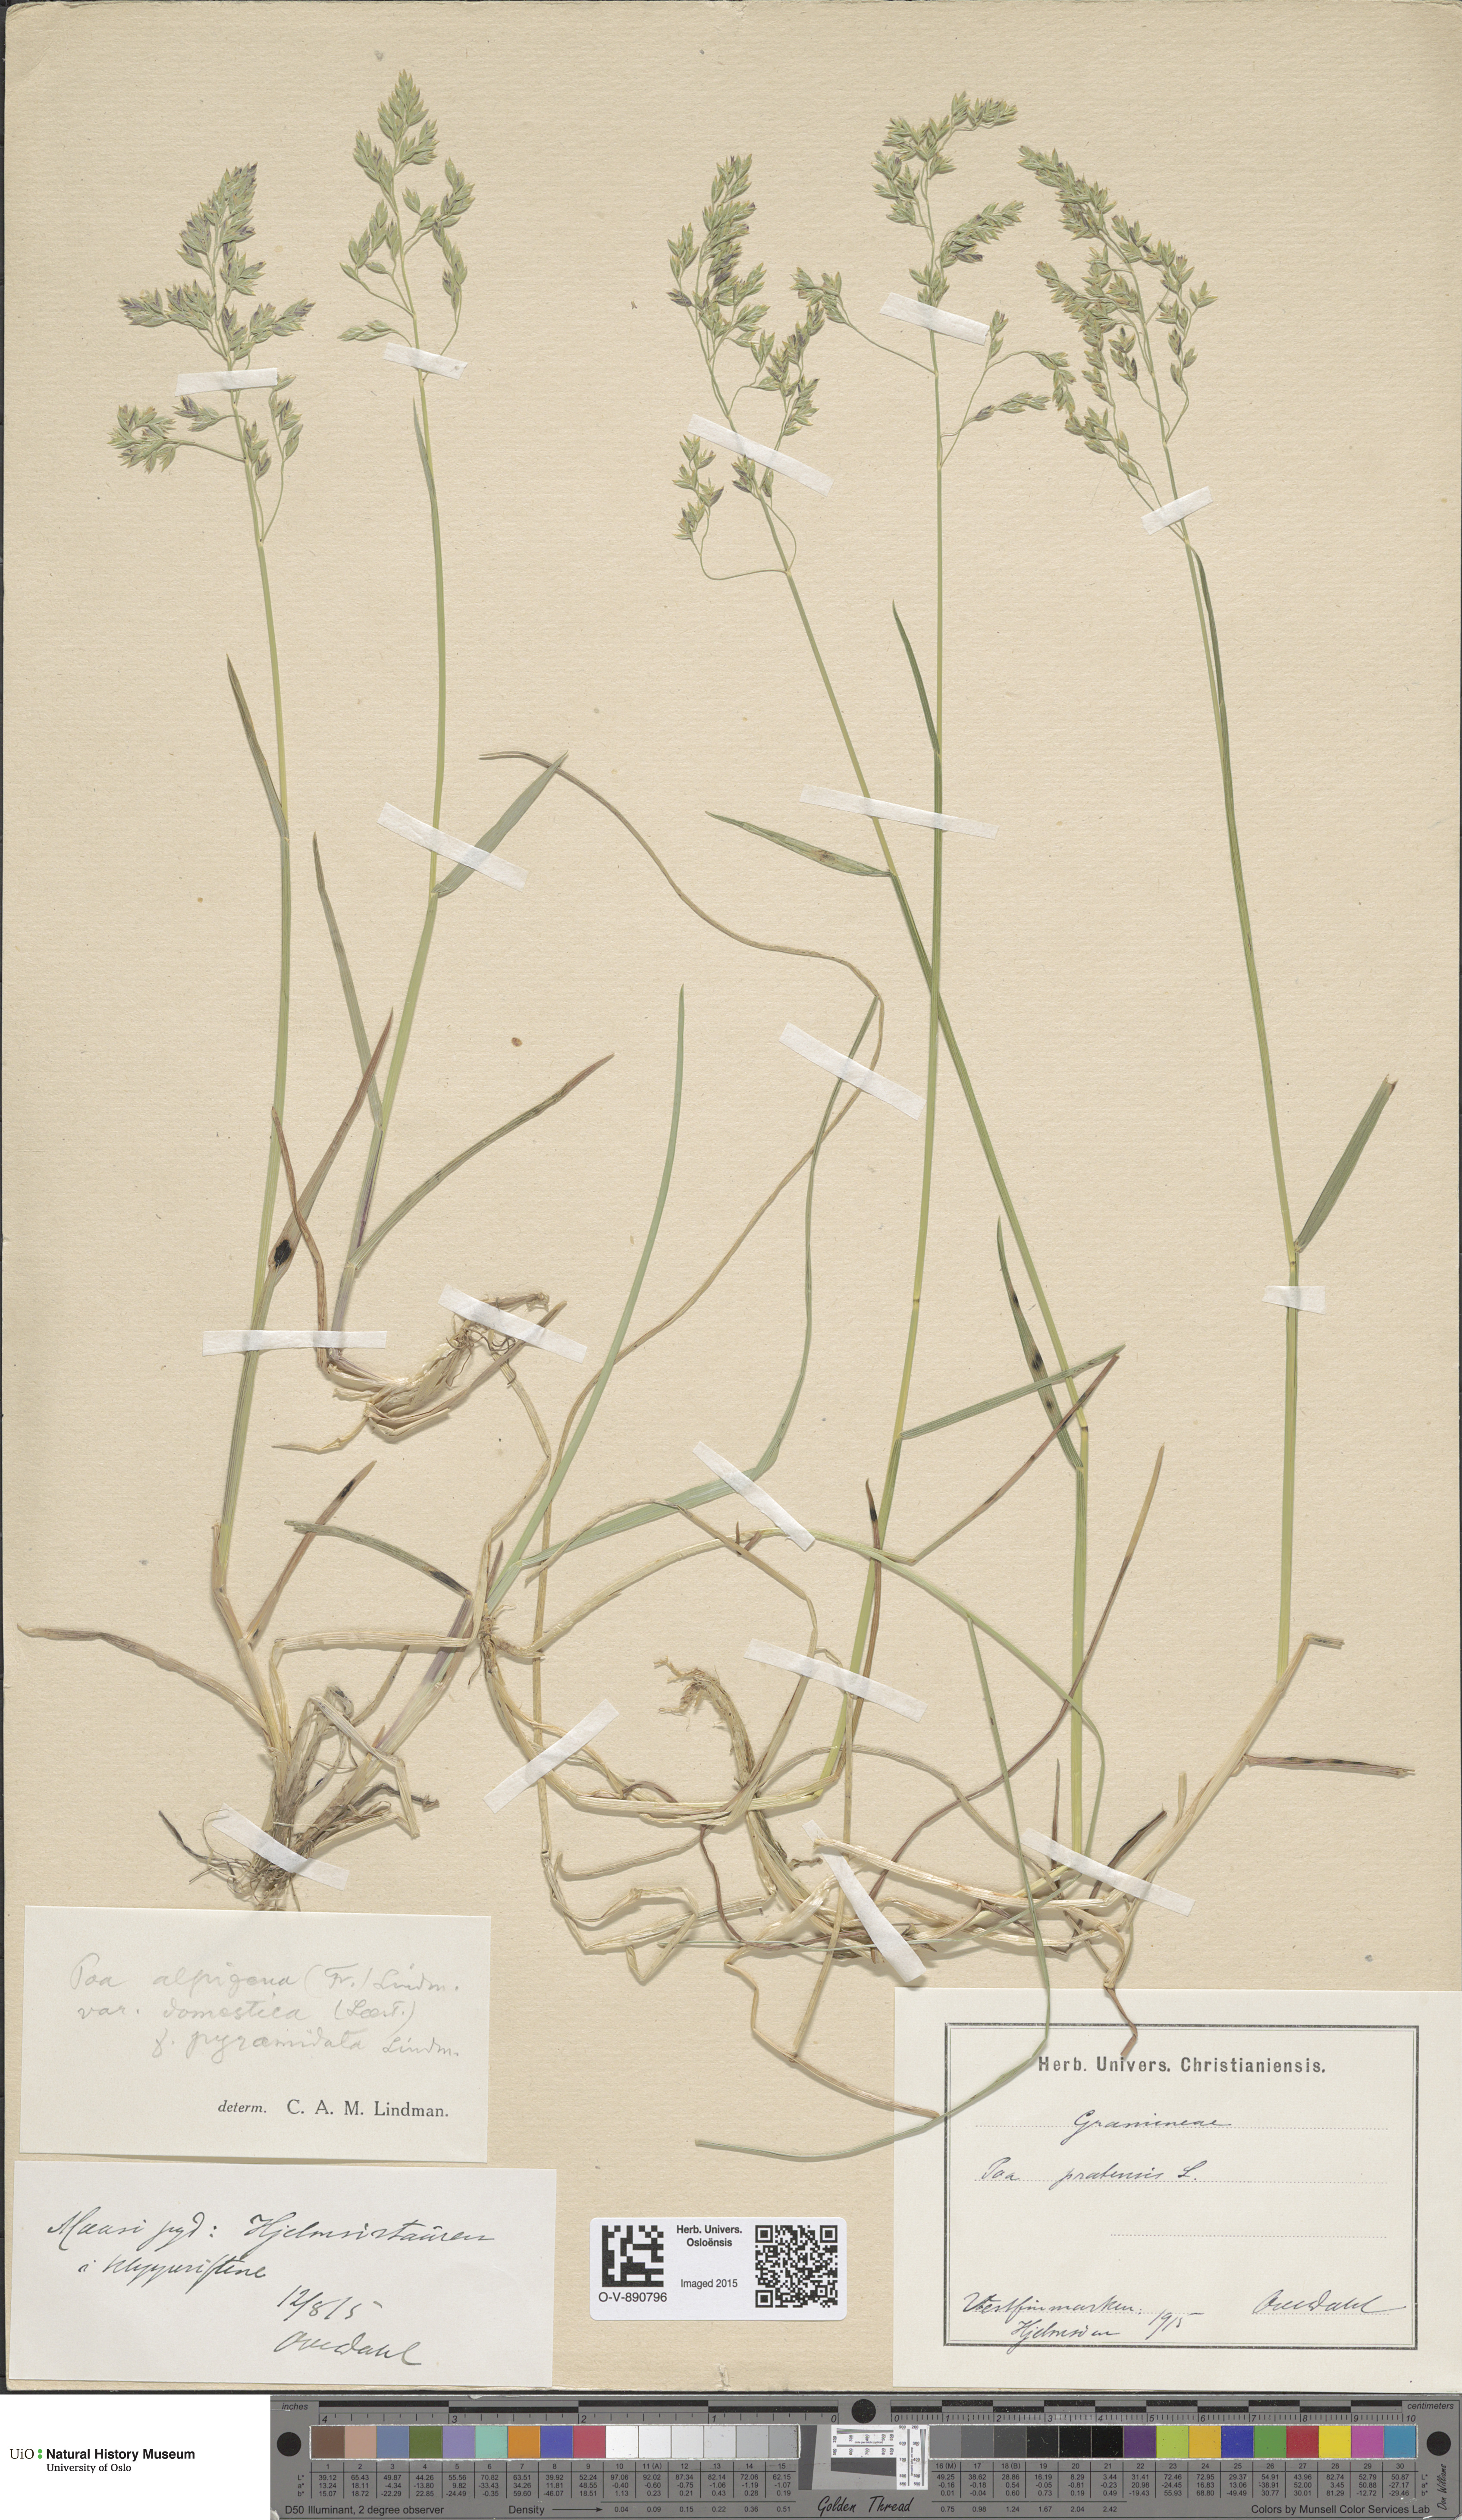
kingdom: Plantae
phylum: Tracheophyta
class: Liliopsida
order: Poales
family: Poaceae
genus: Poa
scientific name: Poa pratensis
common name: Kentucky bluegrass
